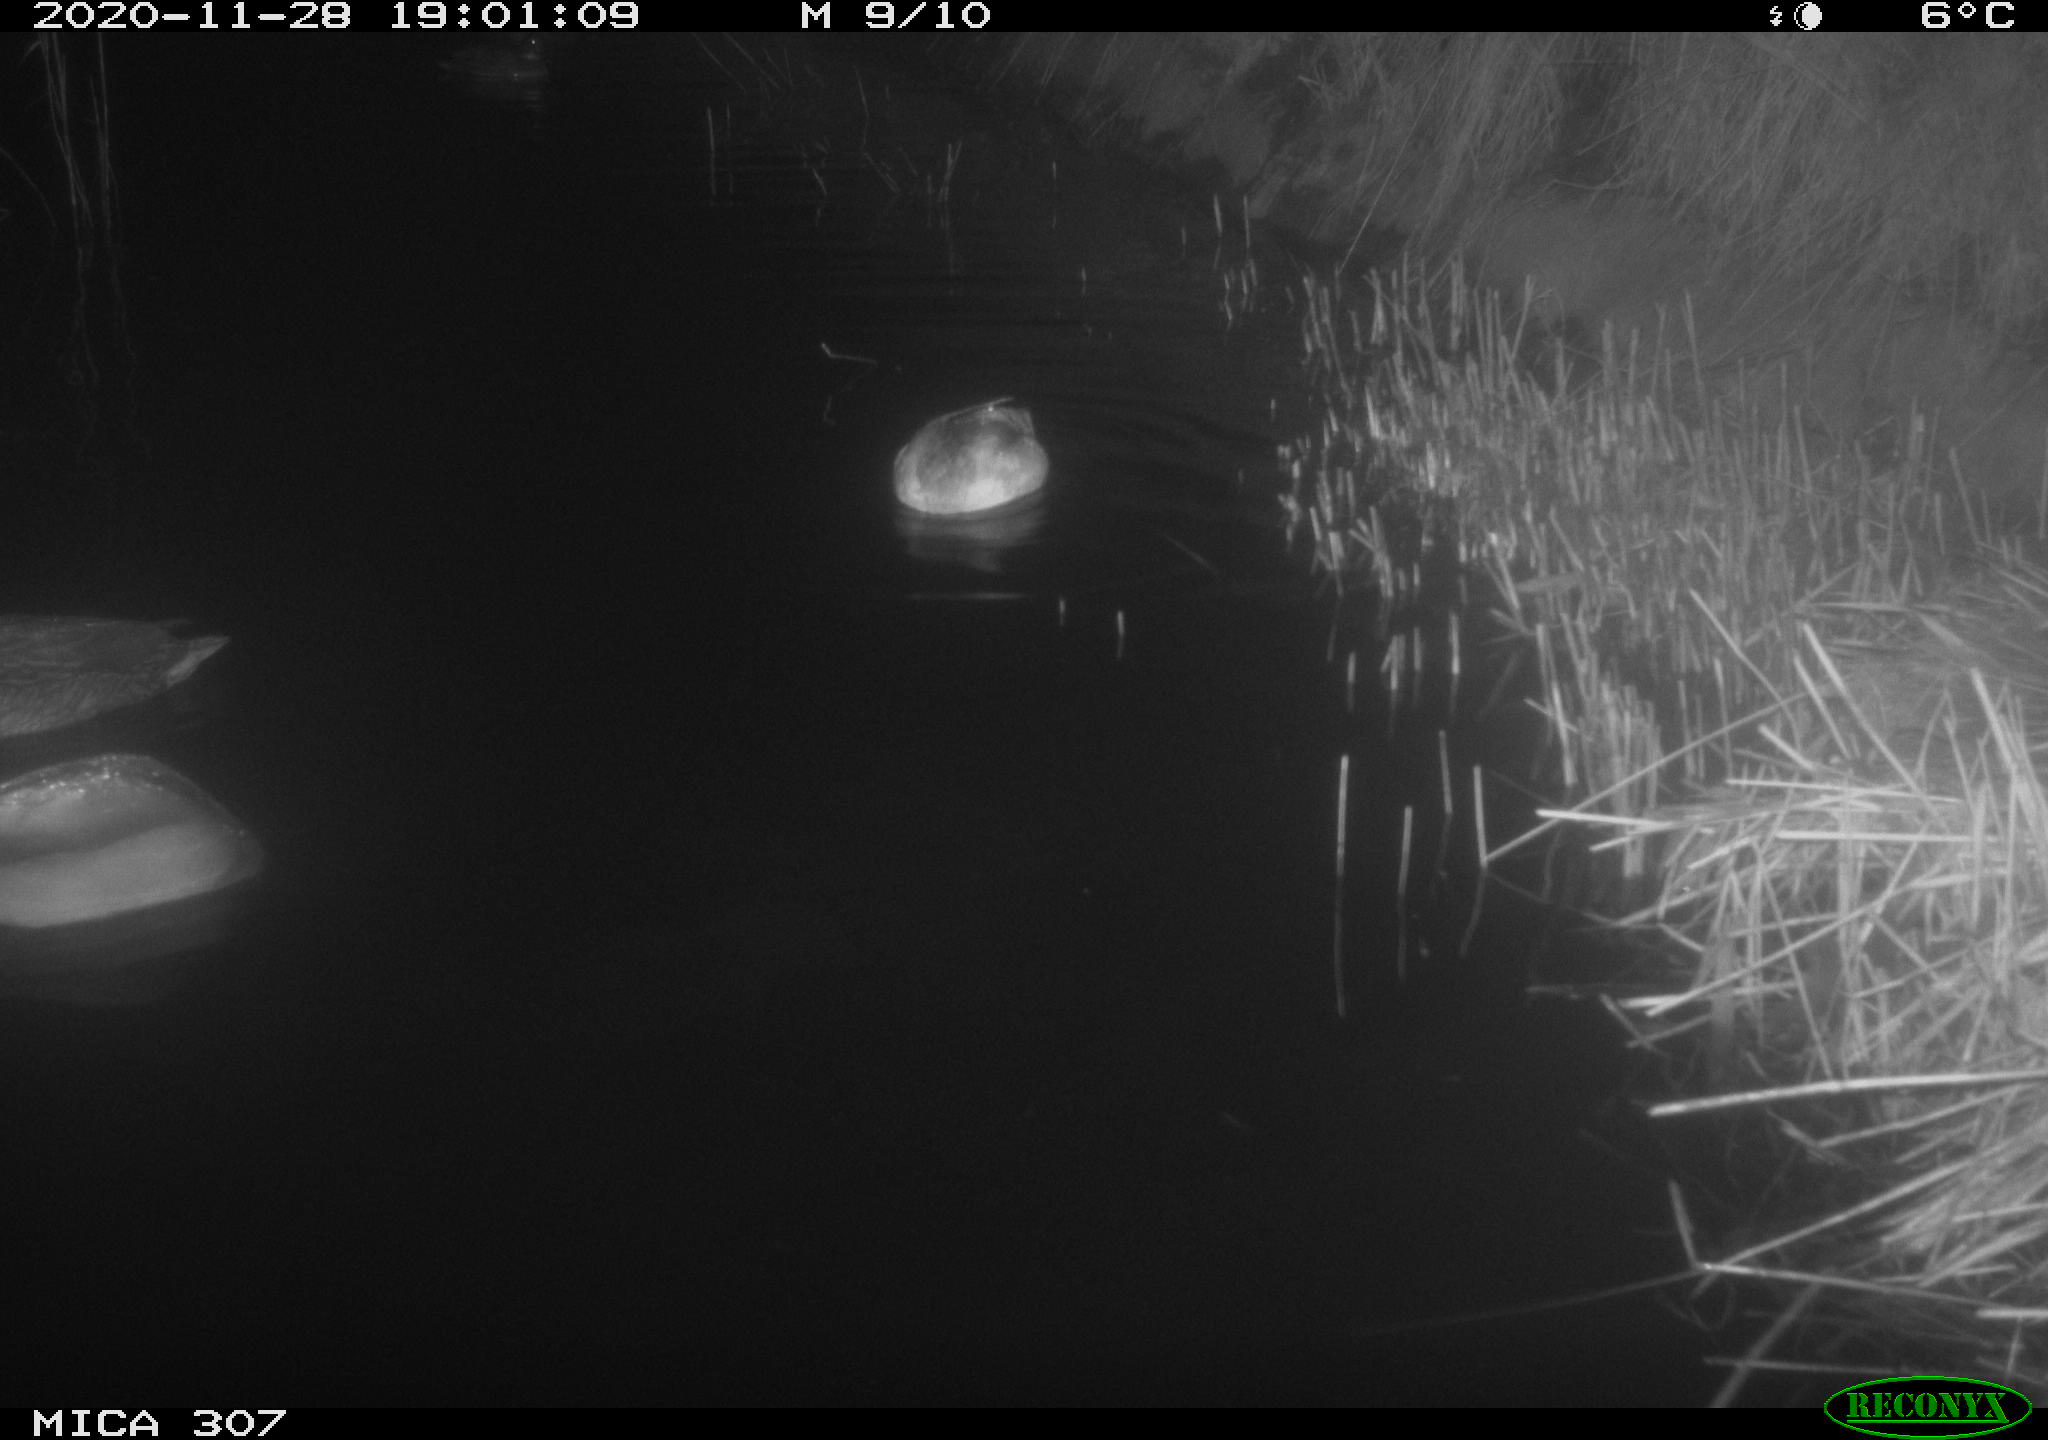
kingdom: Animalia
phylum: Chordata
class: Aves
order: Anseriformes
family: Anatidae
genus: Anas
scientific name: Anas platyrhynchos
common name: Mallard
